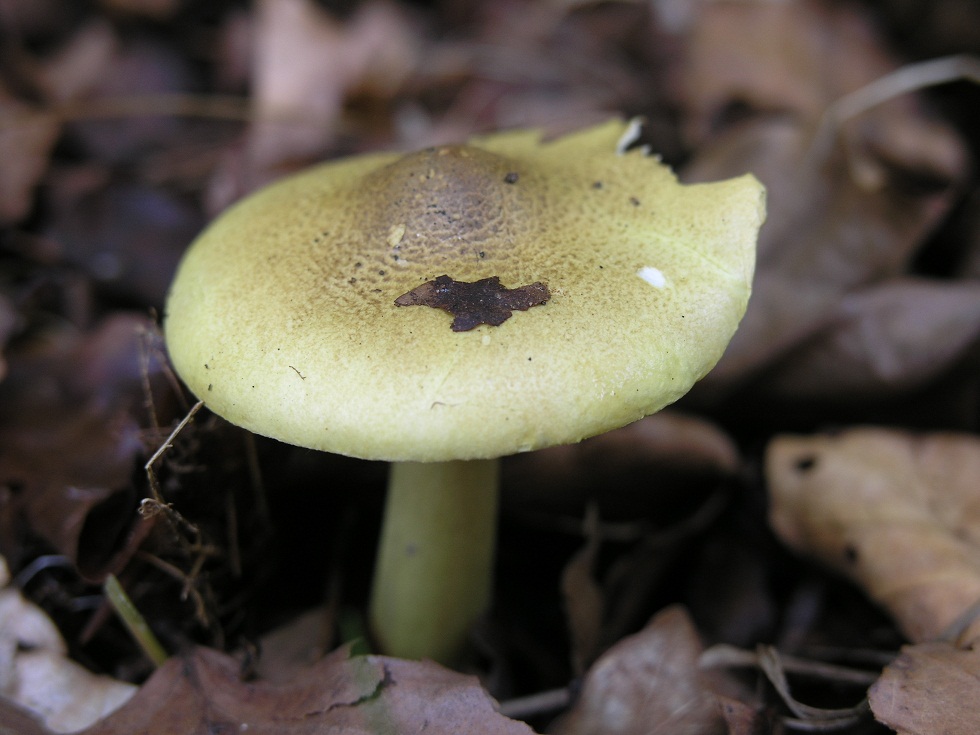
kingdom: Fungi
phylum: Basidiomycota
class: Agaricomycetes
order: Agaricales
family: Tricholomataceae
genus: Tricholoma
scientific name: Tricholoma frondosae
